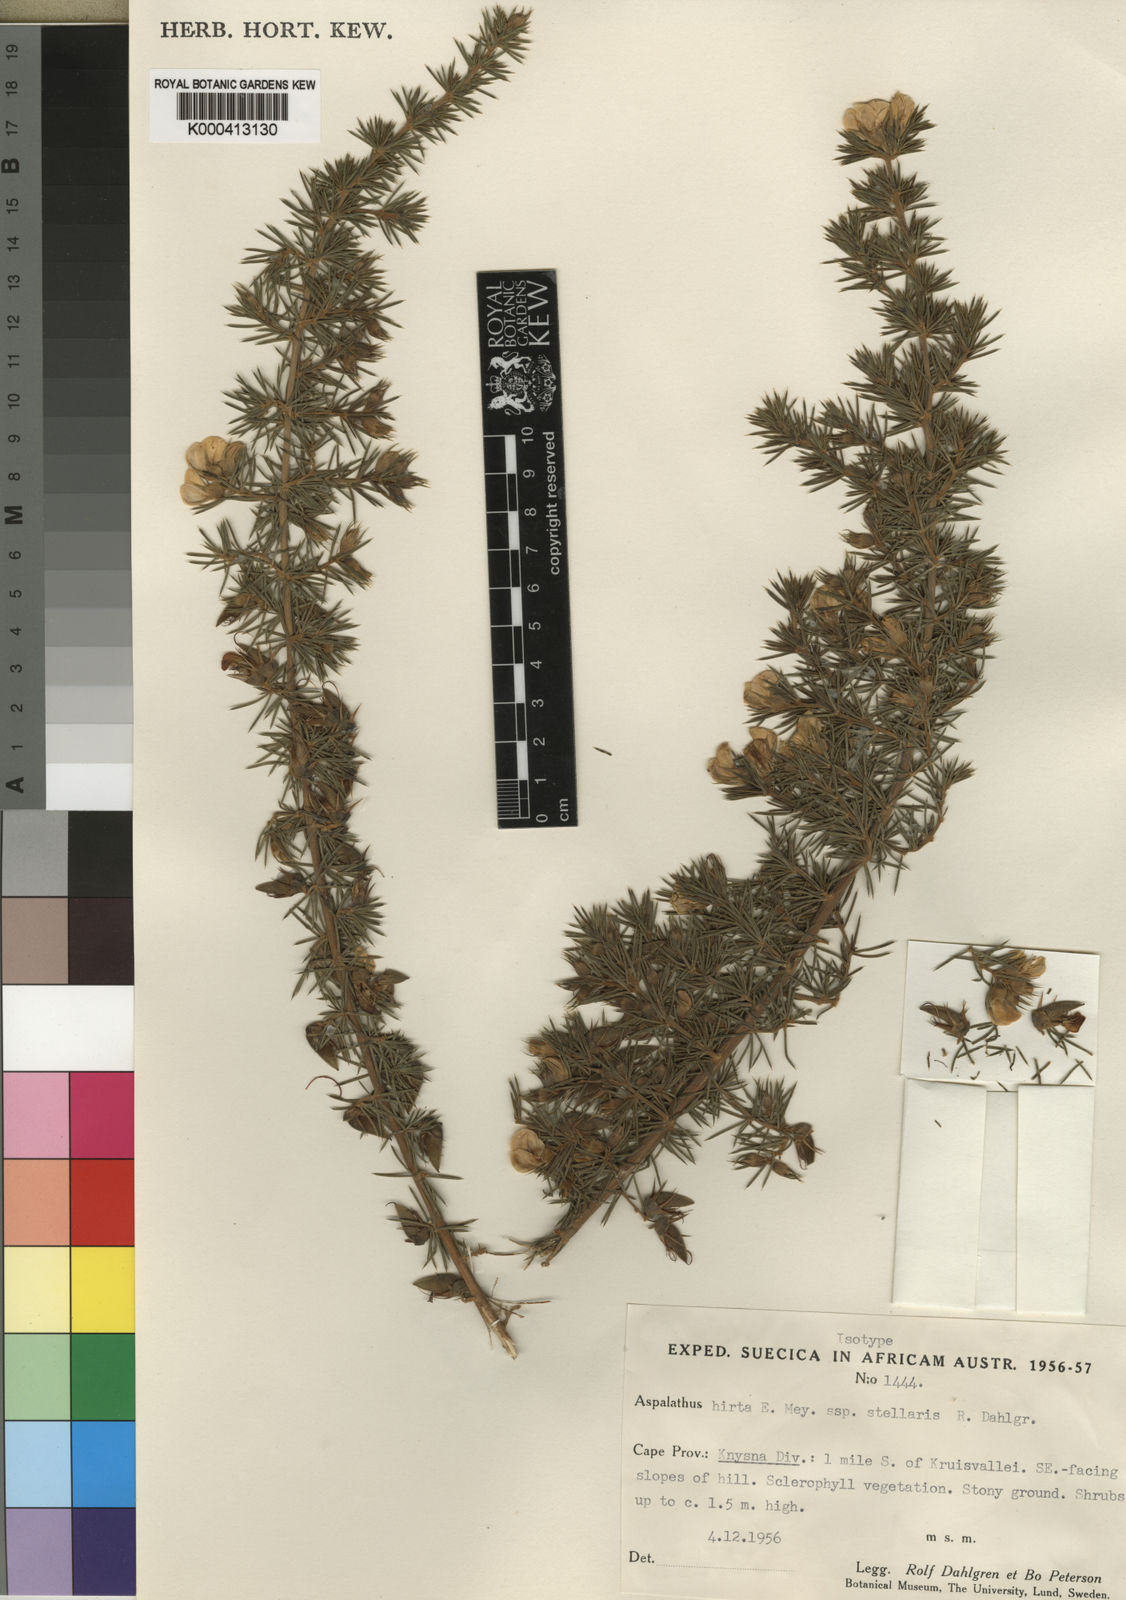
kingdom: Plantae
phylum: Tracheophyta
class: Magnoliopsida
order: Fabales
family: Fabaceae
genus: Aspalathus
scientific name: Aspalathus hirta
